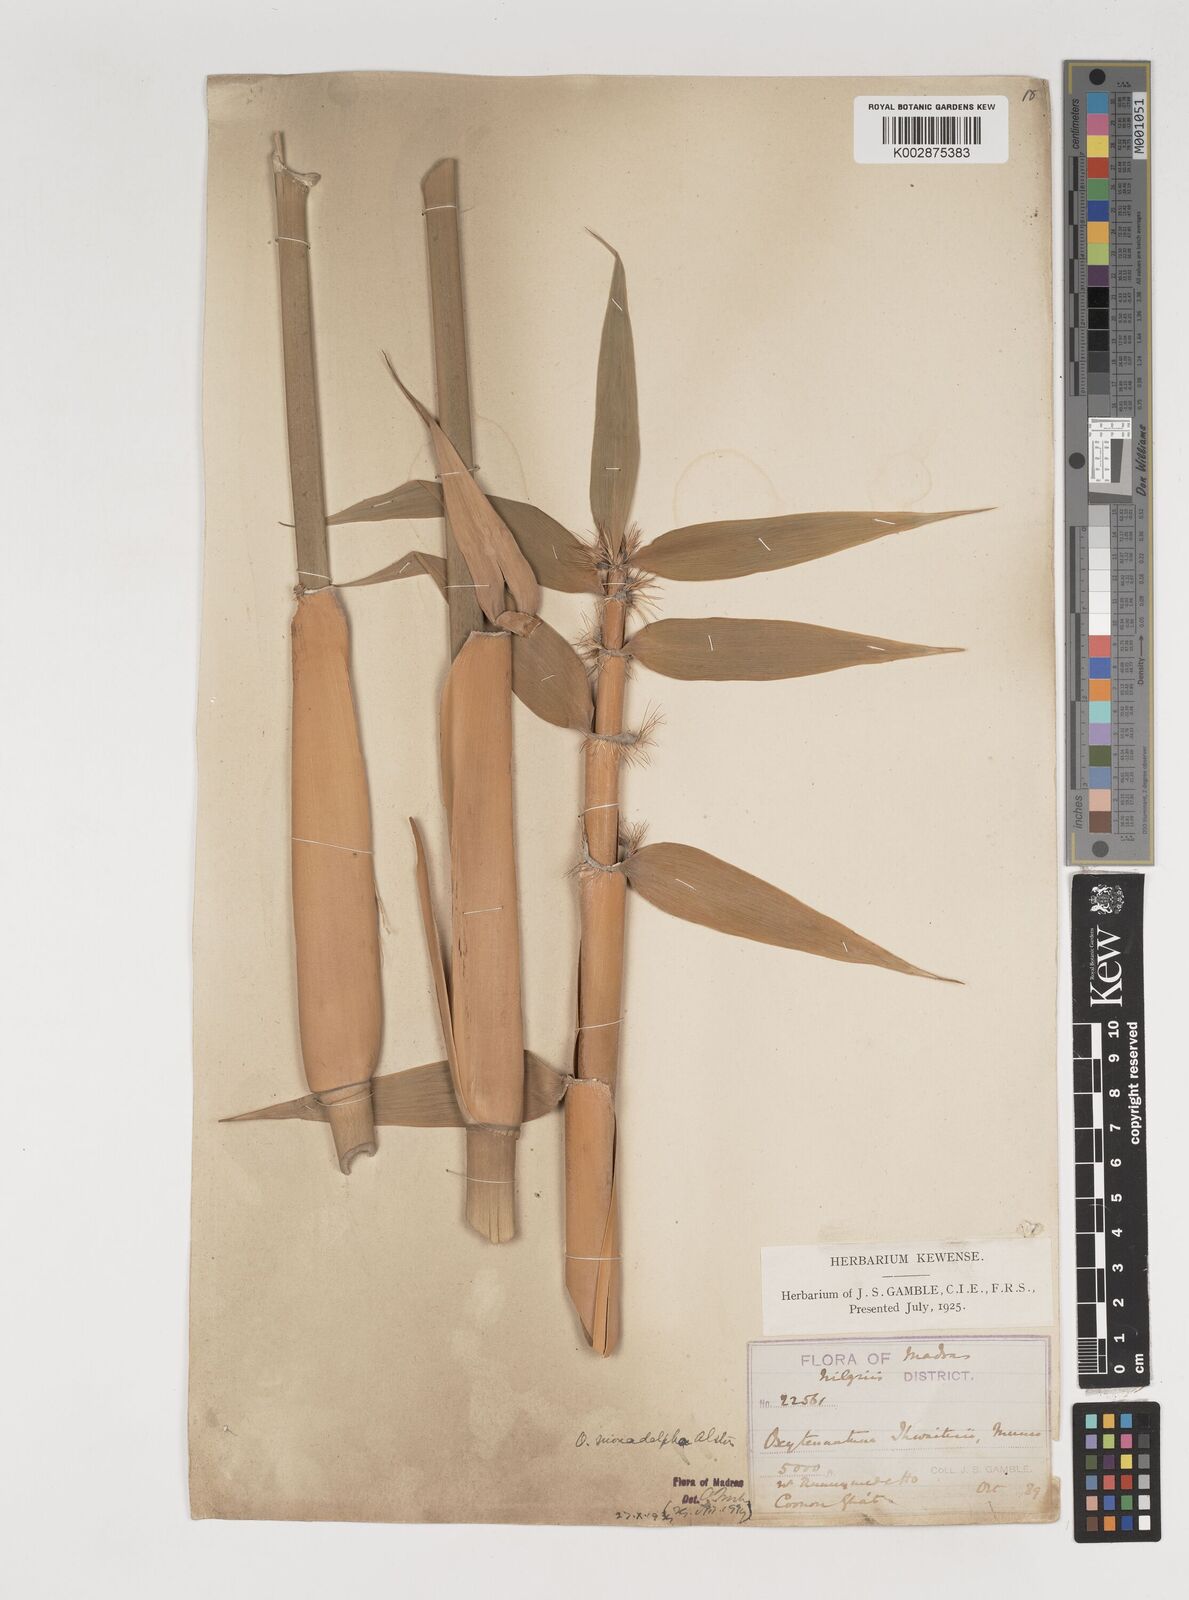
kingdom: Plantae
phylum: Tracheophyta
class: Liliopsida
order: Poales
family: Poaceae
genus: Pseudoxytenanthera
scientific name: Pseudoxytenanthera monadelpha
